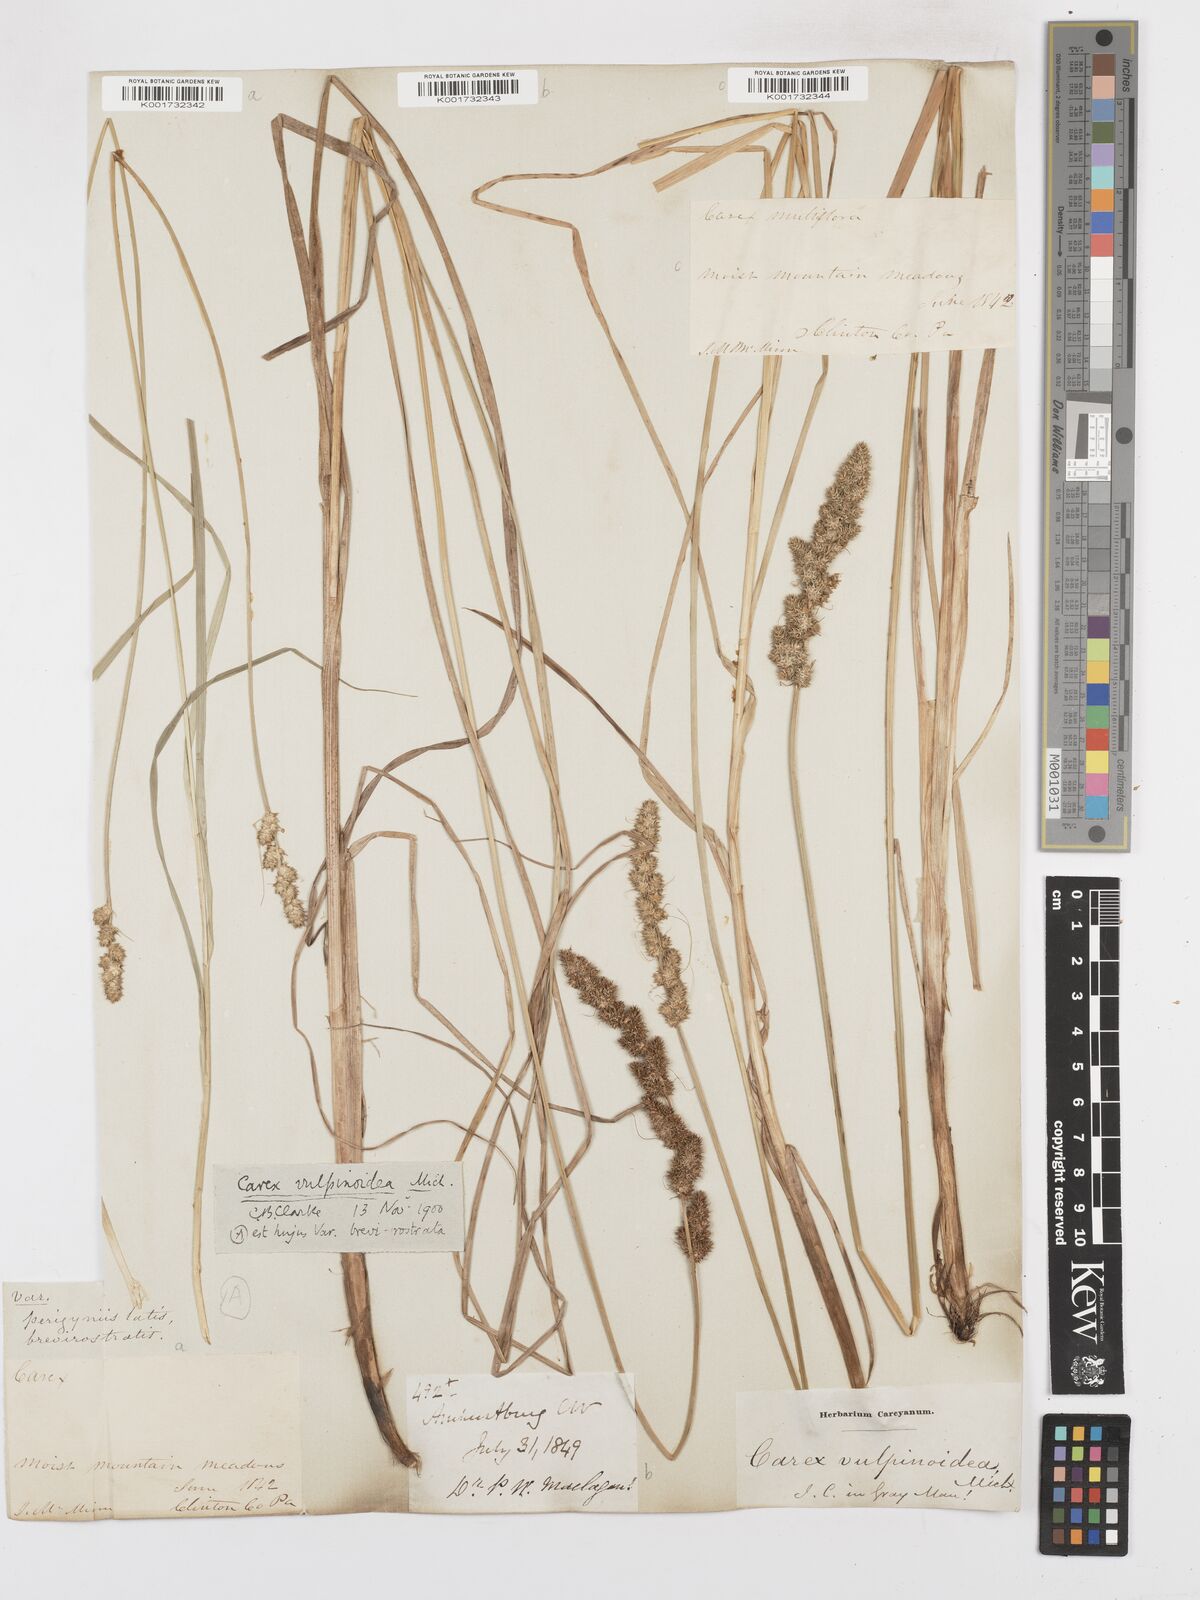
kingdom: Plantae
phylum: Tracheophyta
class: Liliopsida
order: Poales
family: Cyperaceae
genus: Carex
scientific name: Carex vulpinoidea
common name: American fox-sedge
